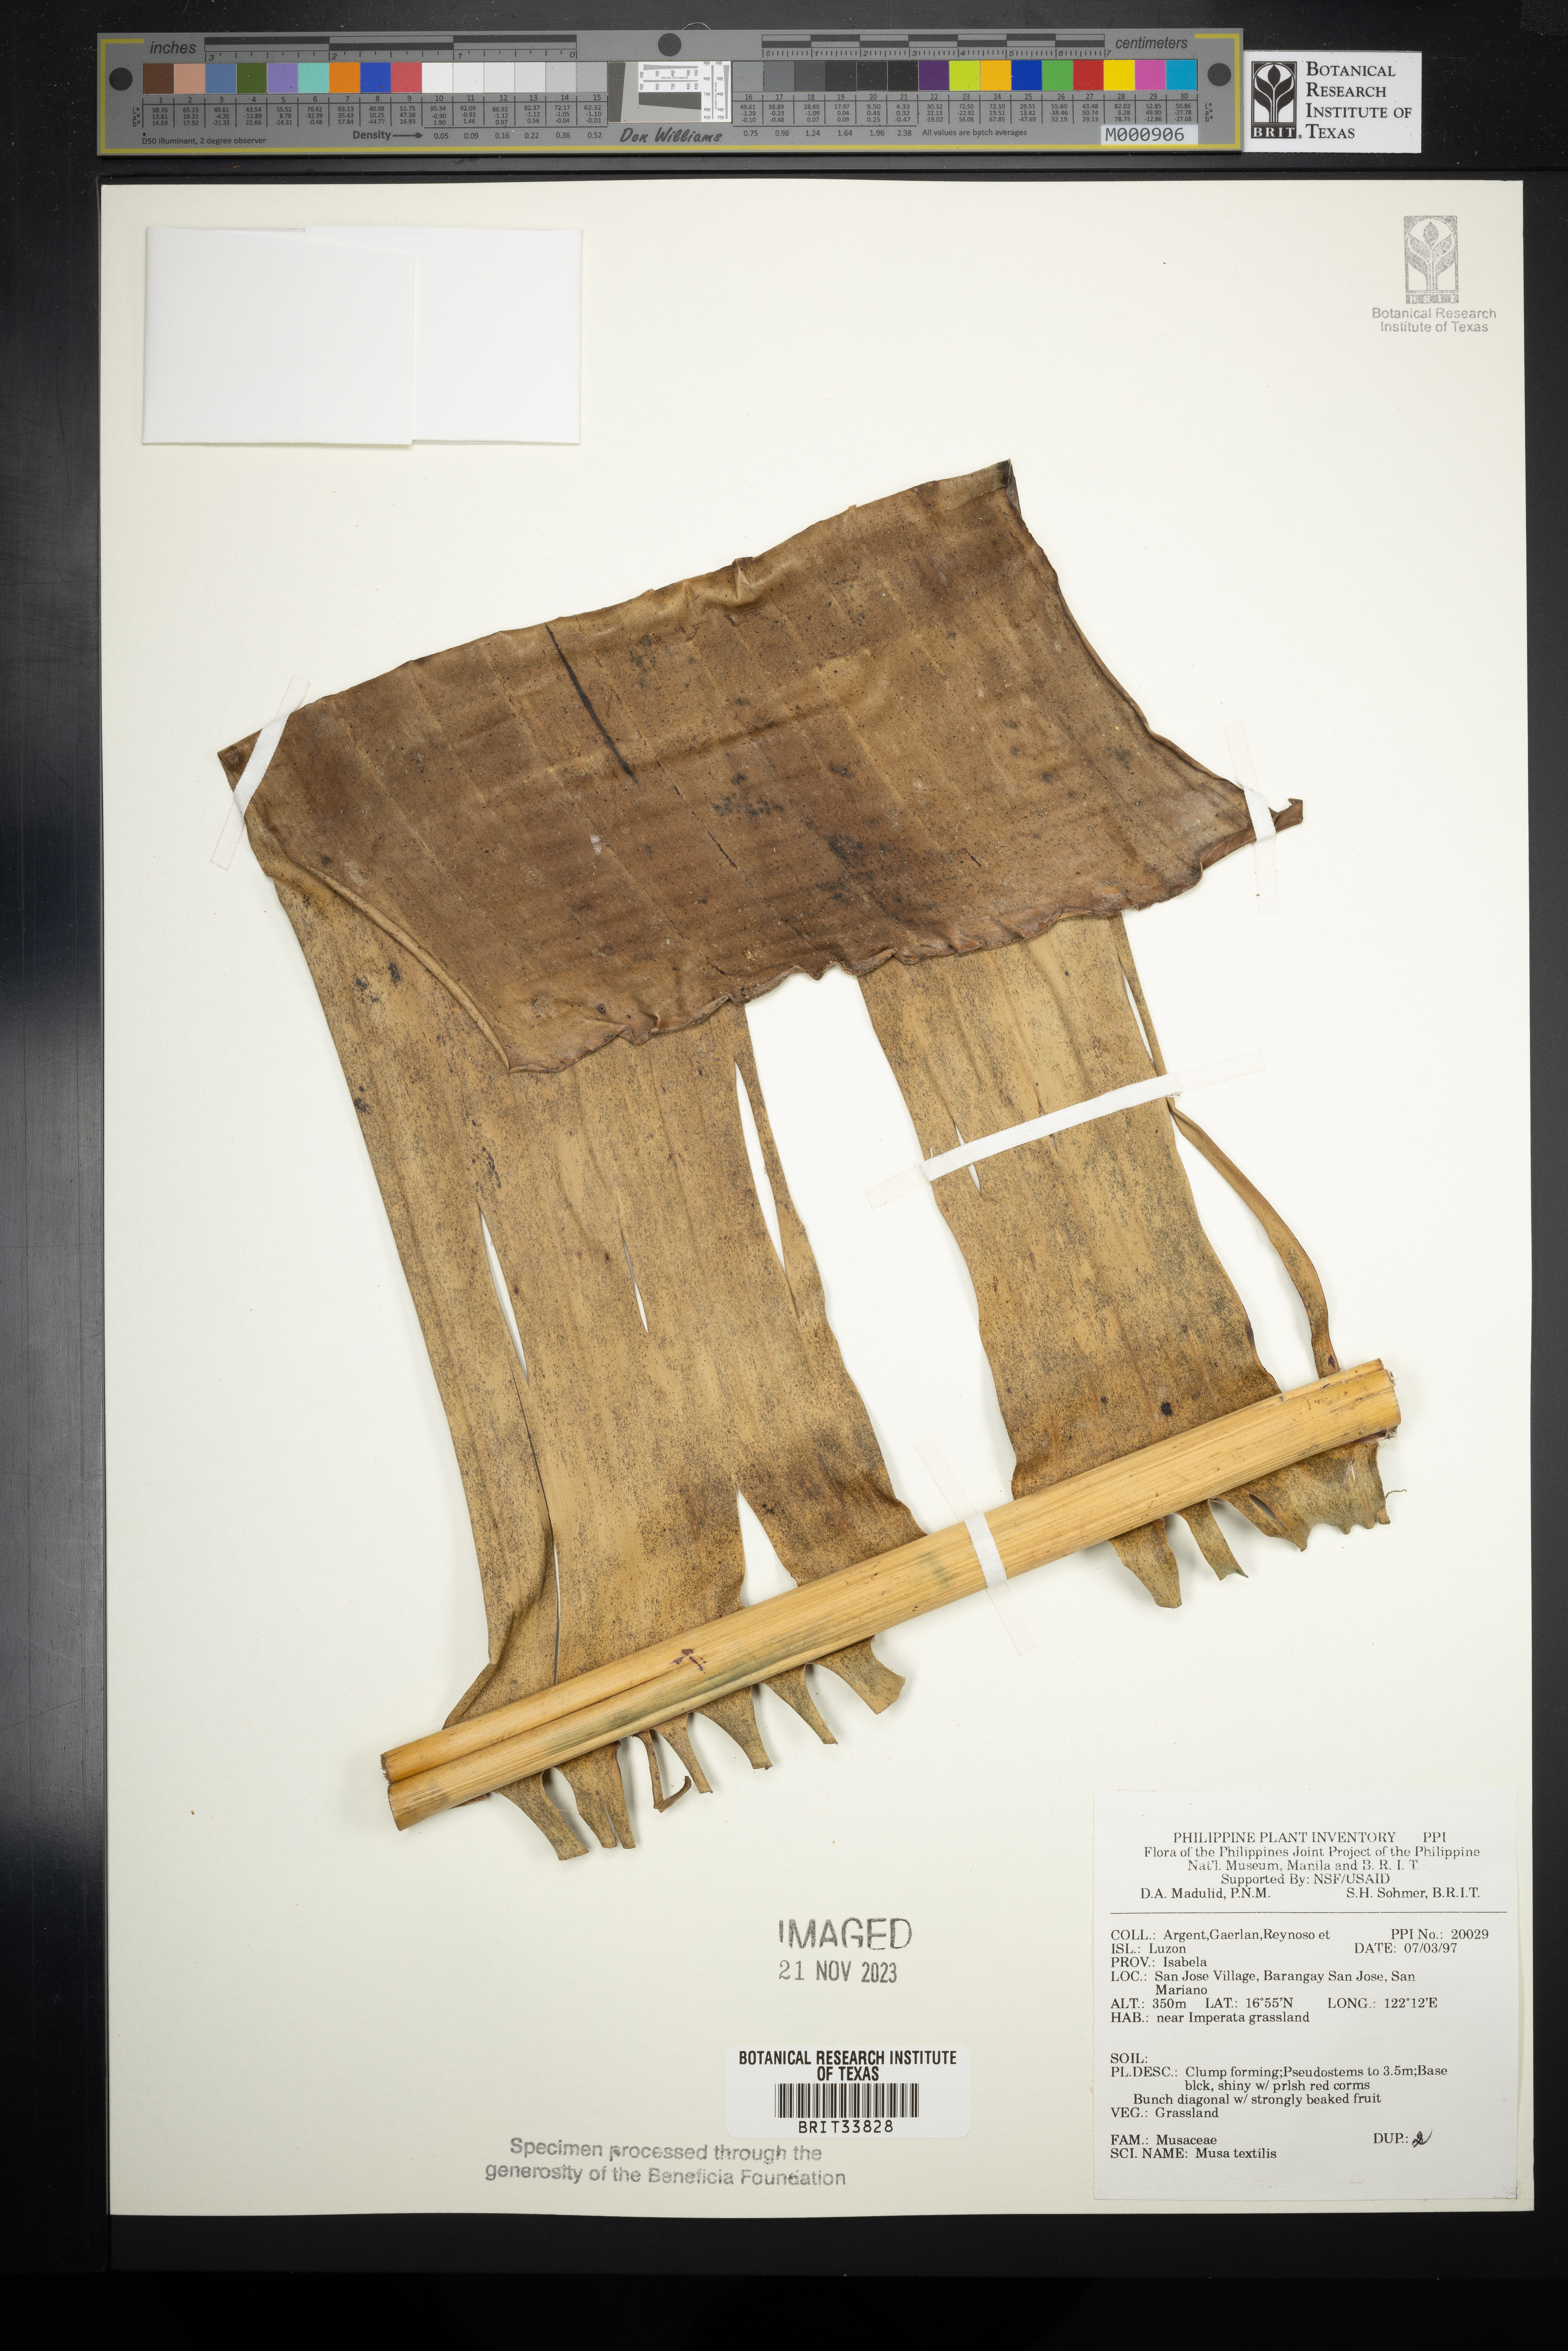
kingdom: Plantae
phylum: Tracheophyta
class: Liliopsida
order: Zingiberales
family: Musaceae
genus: Musa
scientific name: Musa textilis
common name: Manila-hemp
